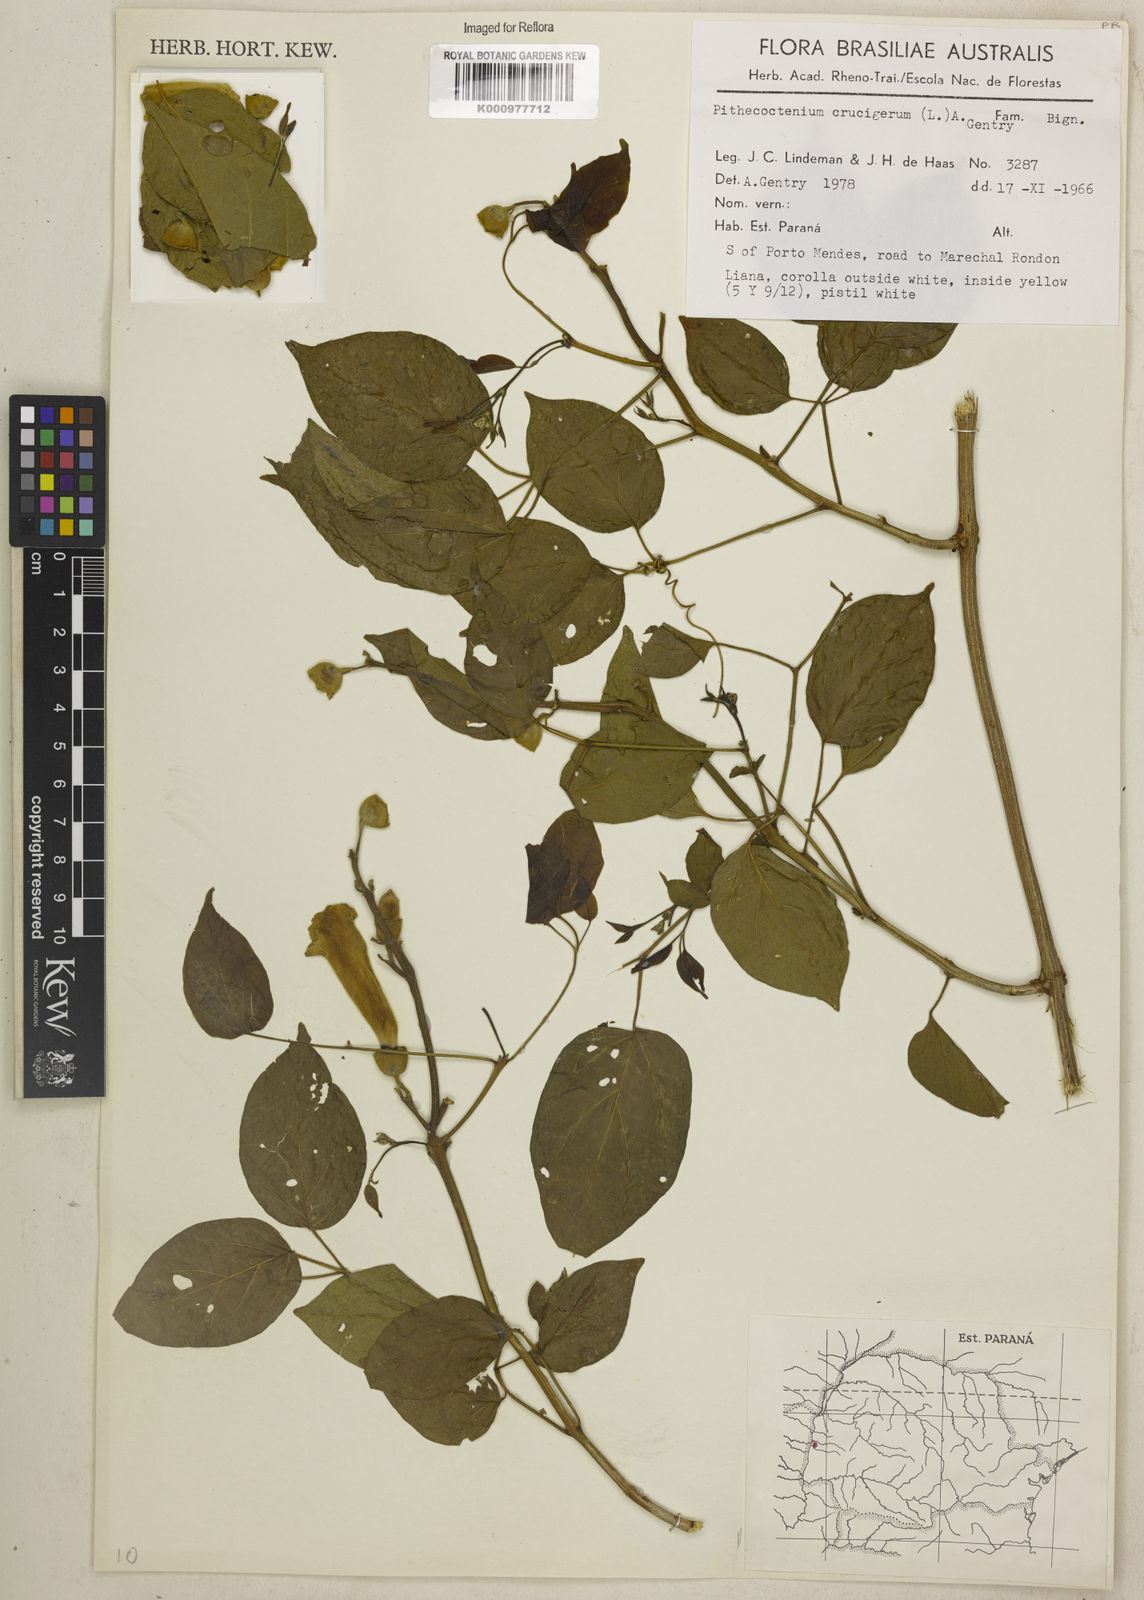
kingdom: Plantae
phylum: Tracheophyta
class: Magnoliopsida
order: Lamiales
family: Bignoniaceae
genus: Amphilophium
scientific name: Amphilophium crucigerum
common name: Monkey comb
